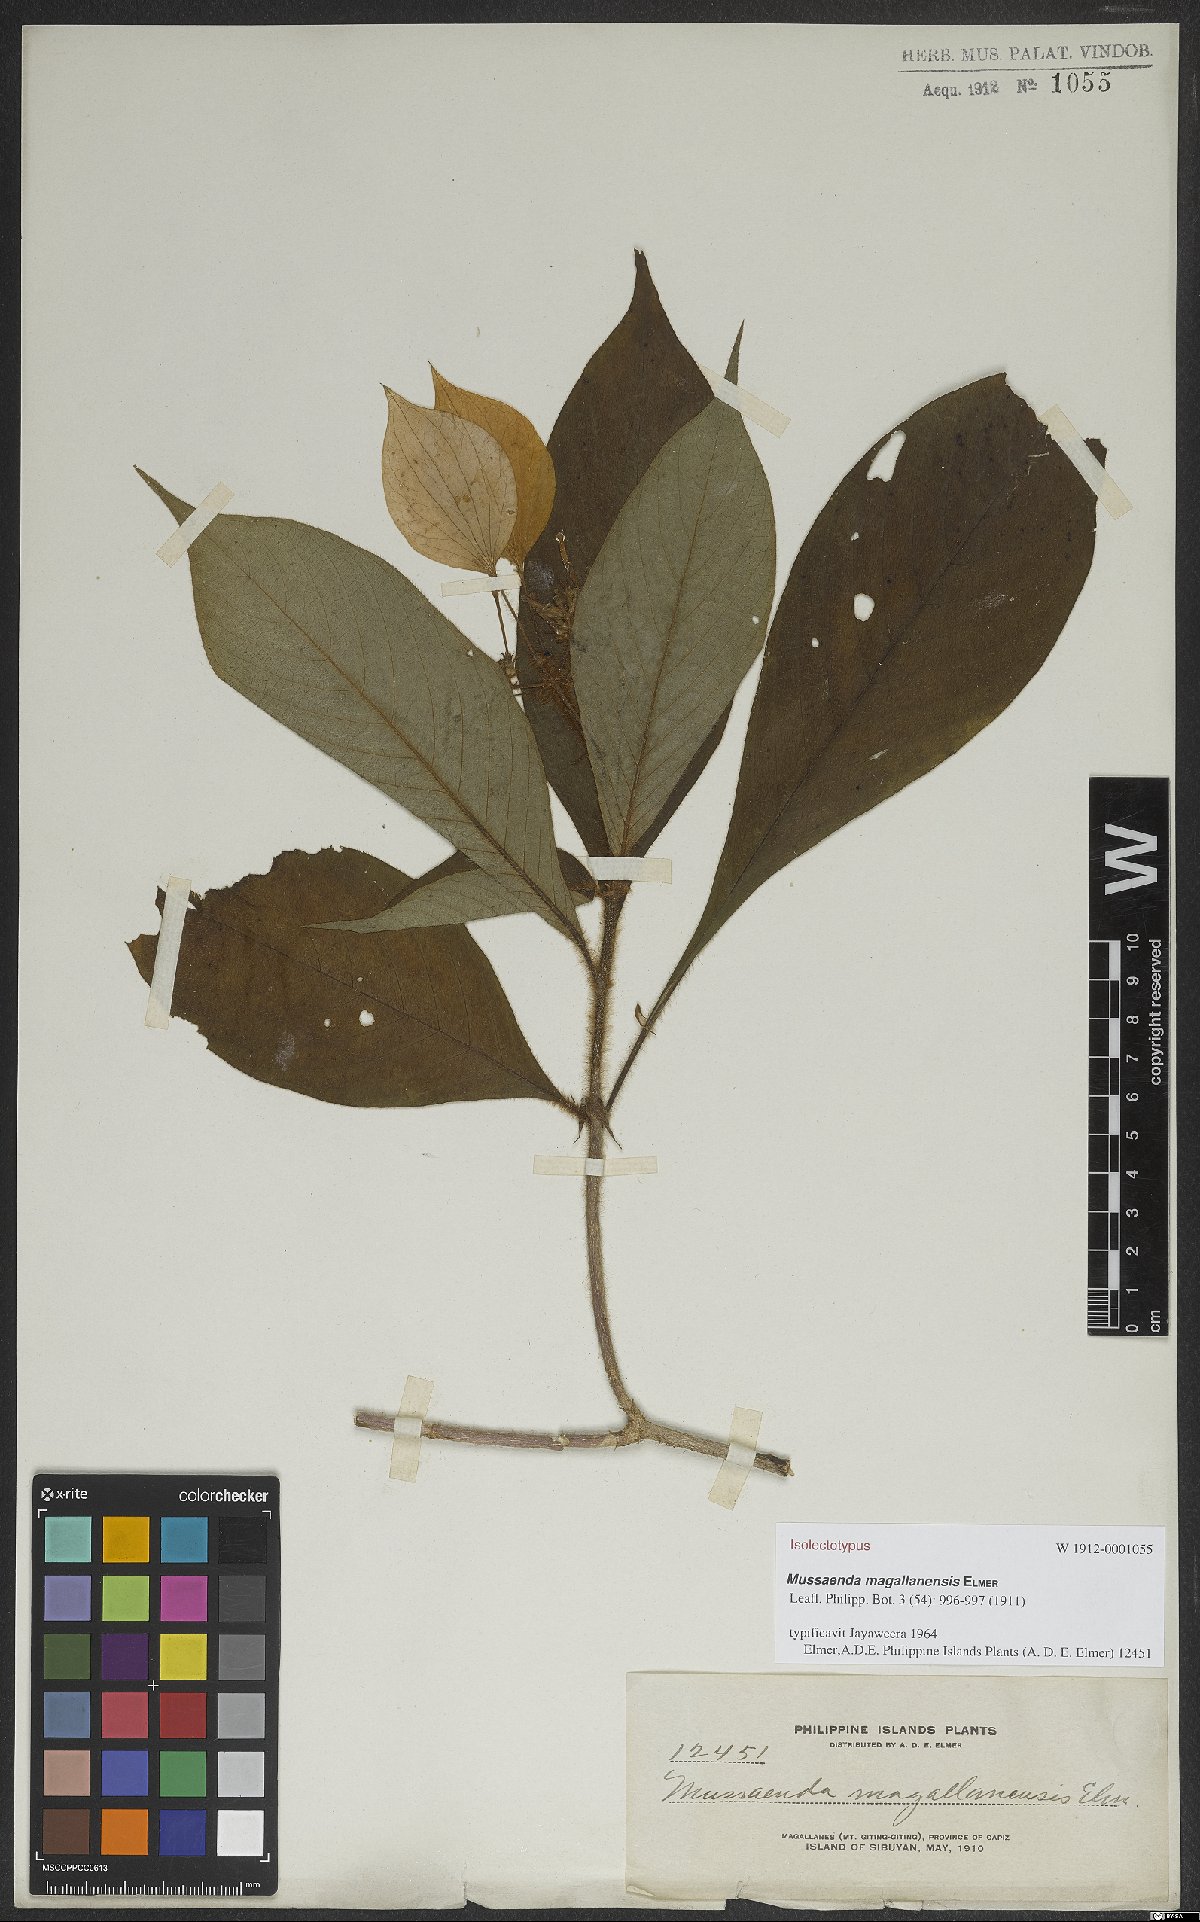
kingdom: Plantae
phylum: Tracheophyta
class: Magnoliopsida
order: Gentianales
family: Rubiaceae
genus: Mussaenda
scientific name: Mussaenda magallanensis
